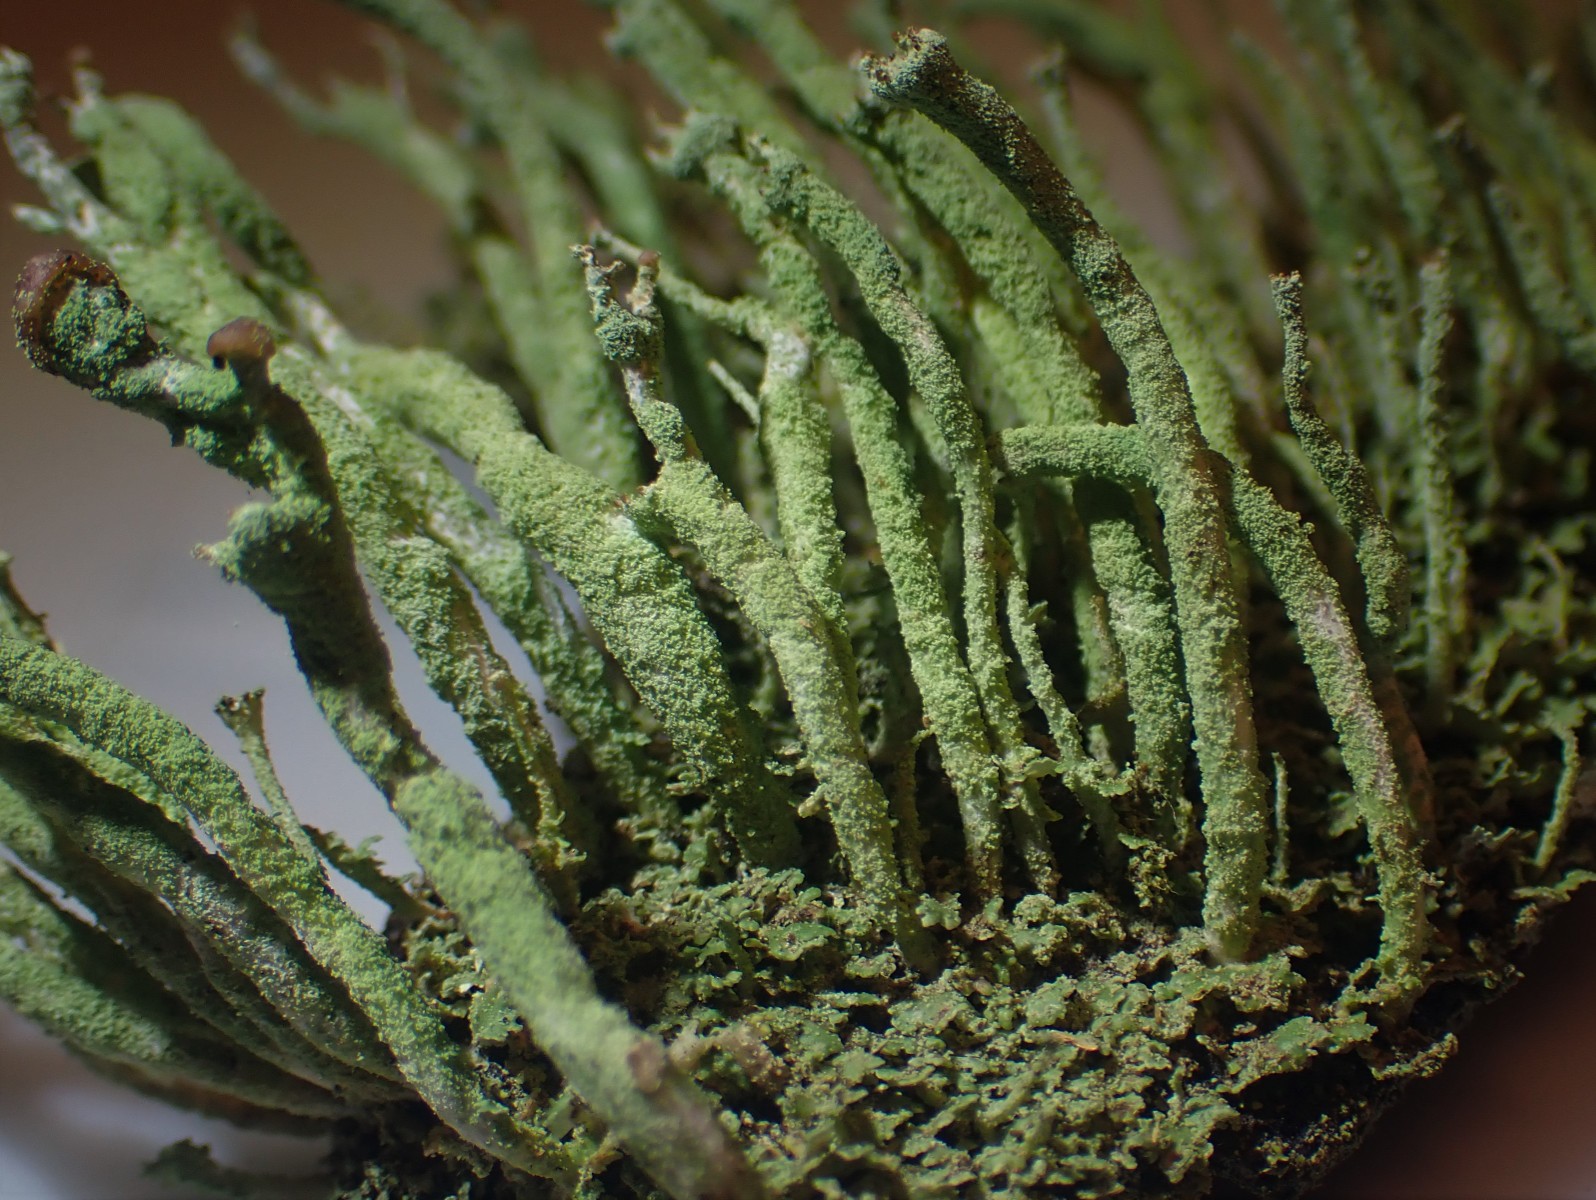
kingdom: Fungi
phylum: Ascomycota
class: Lecanoromycetes
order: Lecanorales
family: Cladoniaceae
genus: Cladonia
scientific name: Cladonia ochrochlora
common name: stød-bægerlav
